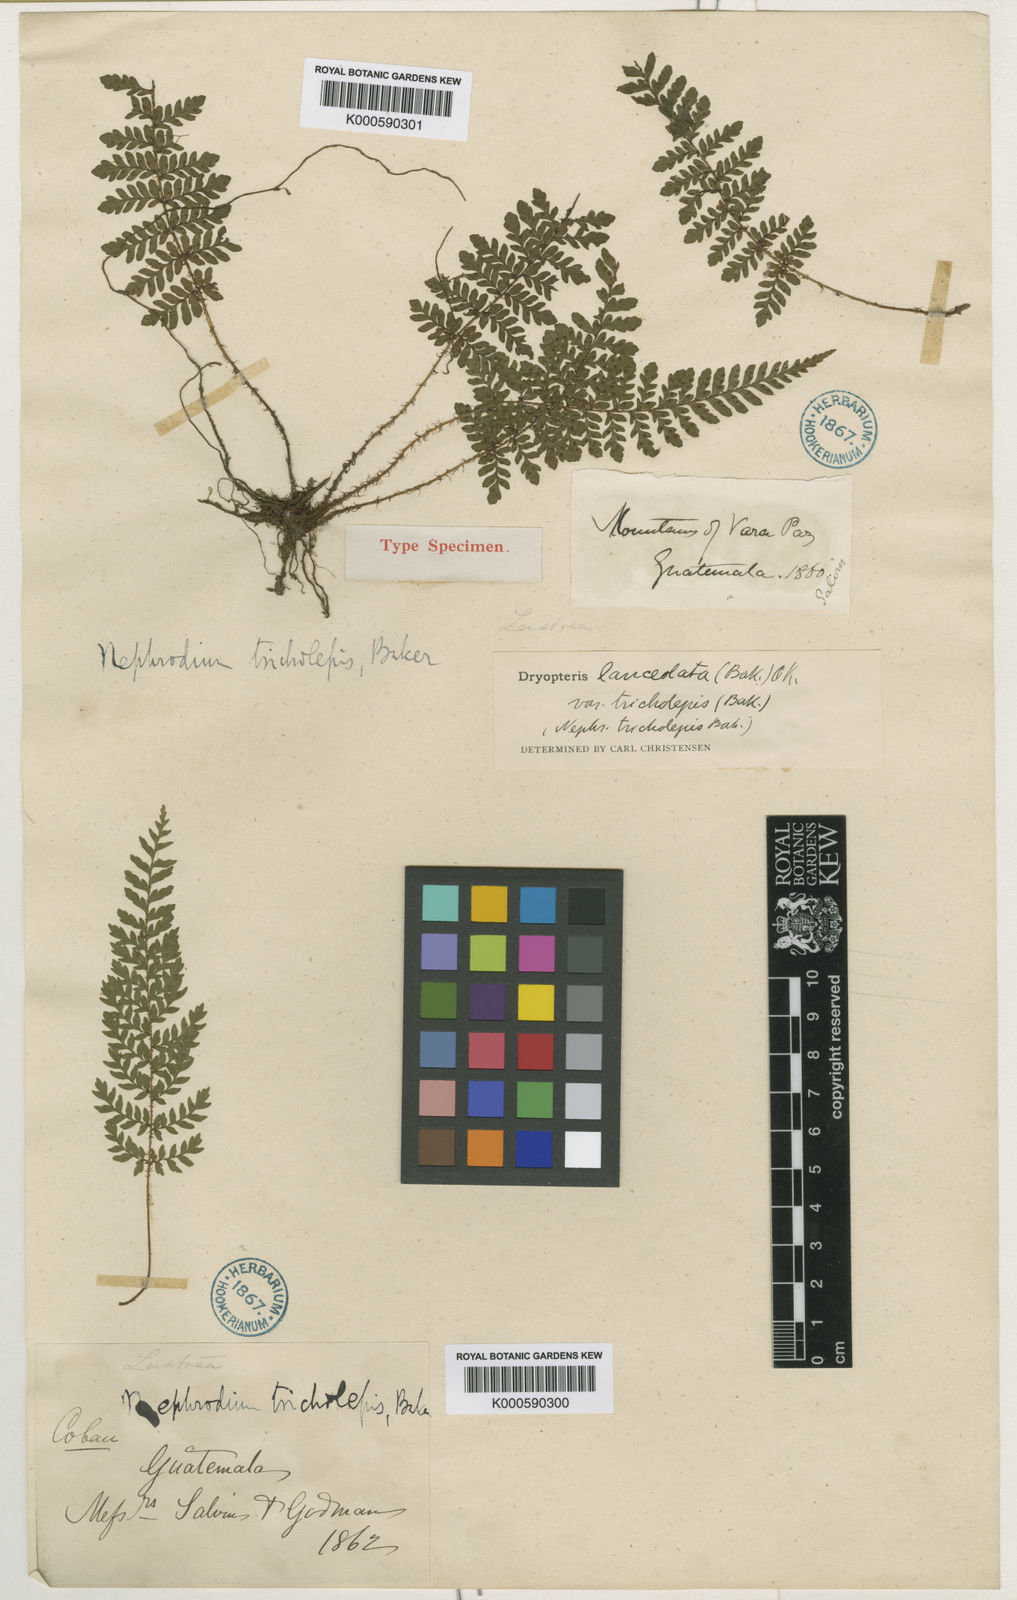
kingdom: Plantae
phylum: Tracheophyta
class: Polypodiopsida
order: Polypodiales
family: Dryopteridaceae
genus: Ctenitis
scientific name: Ctenitis lanceolata
